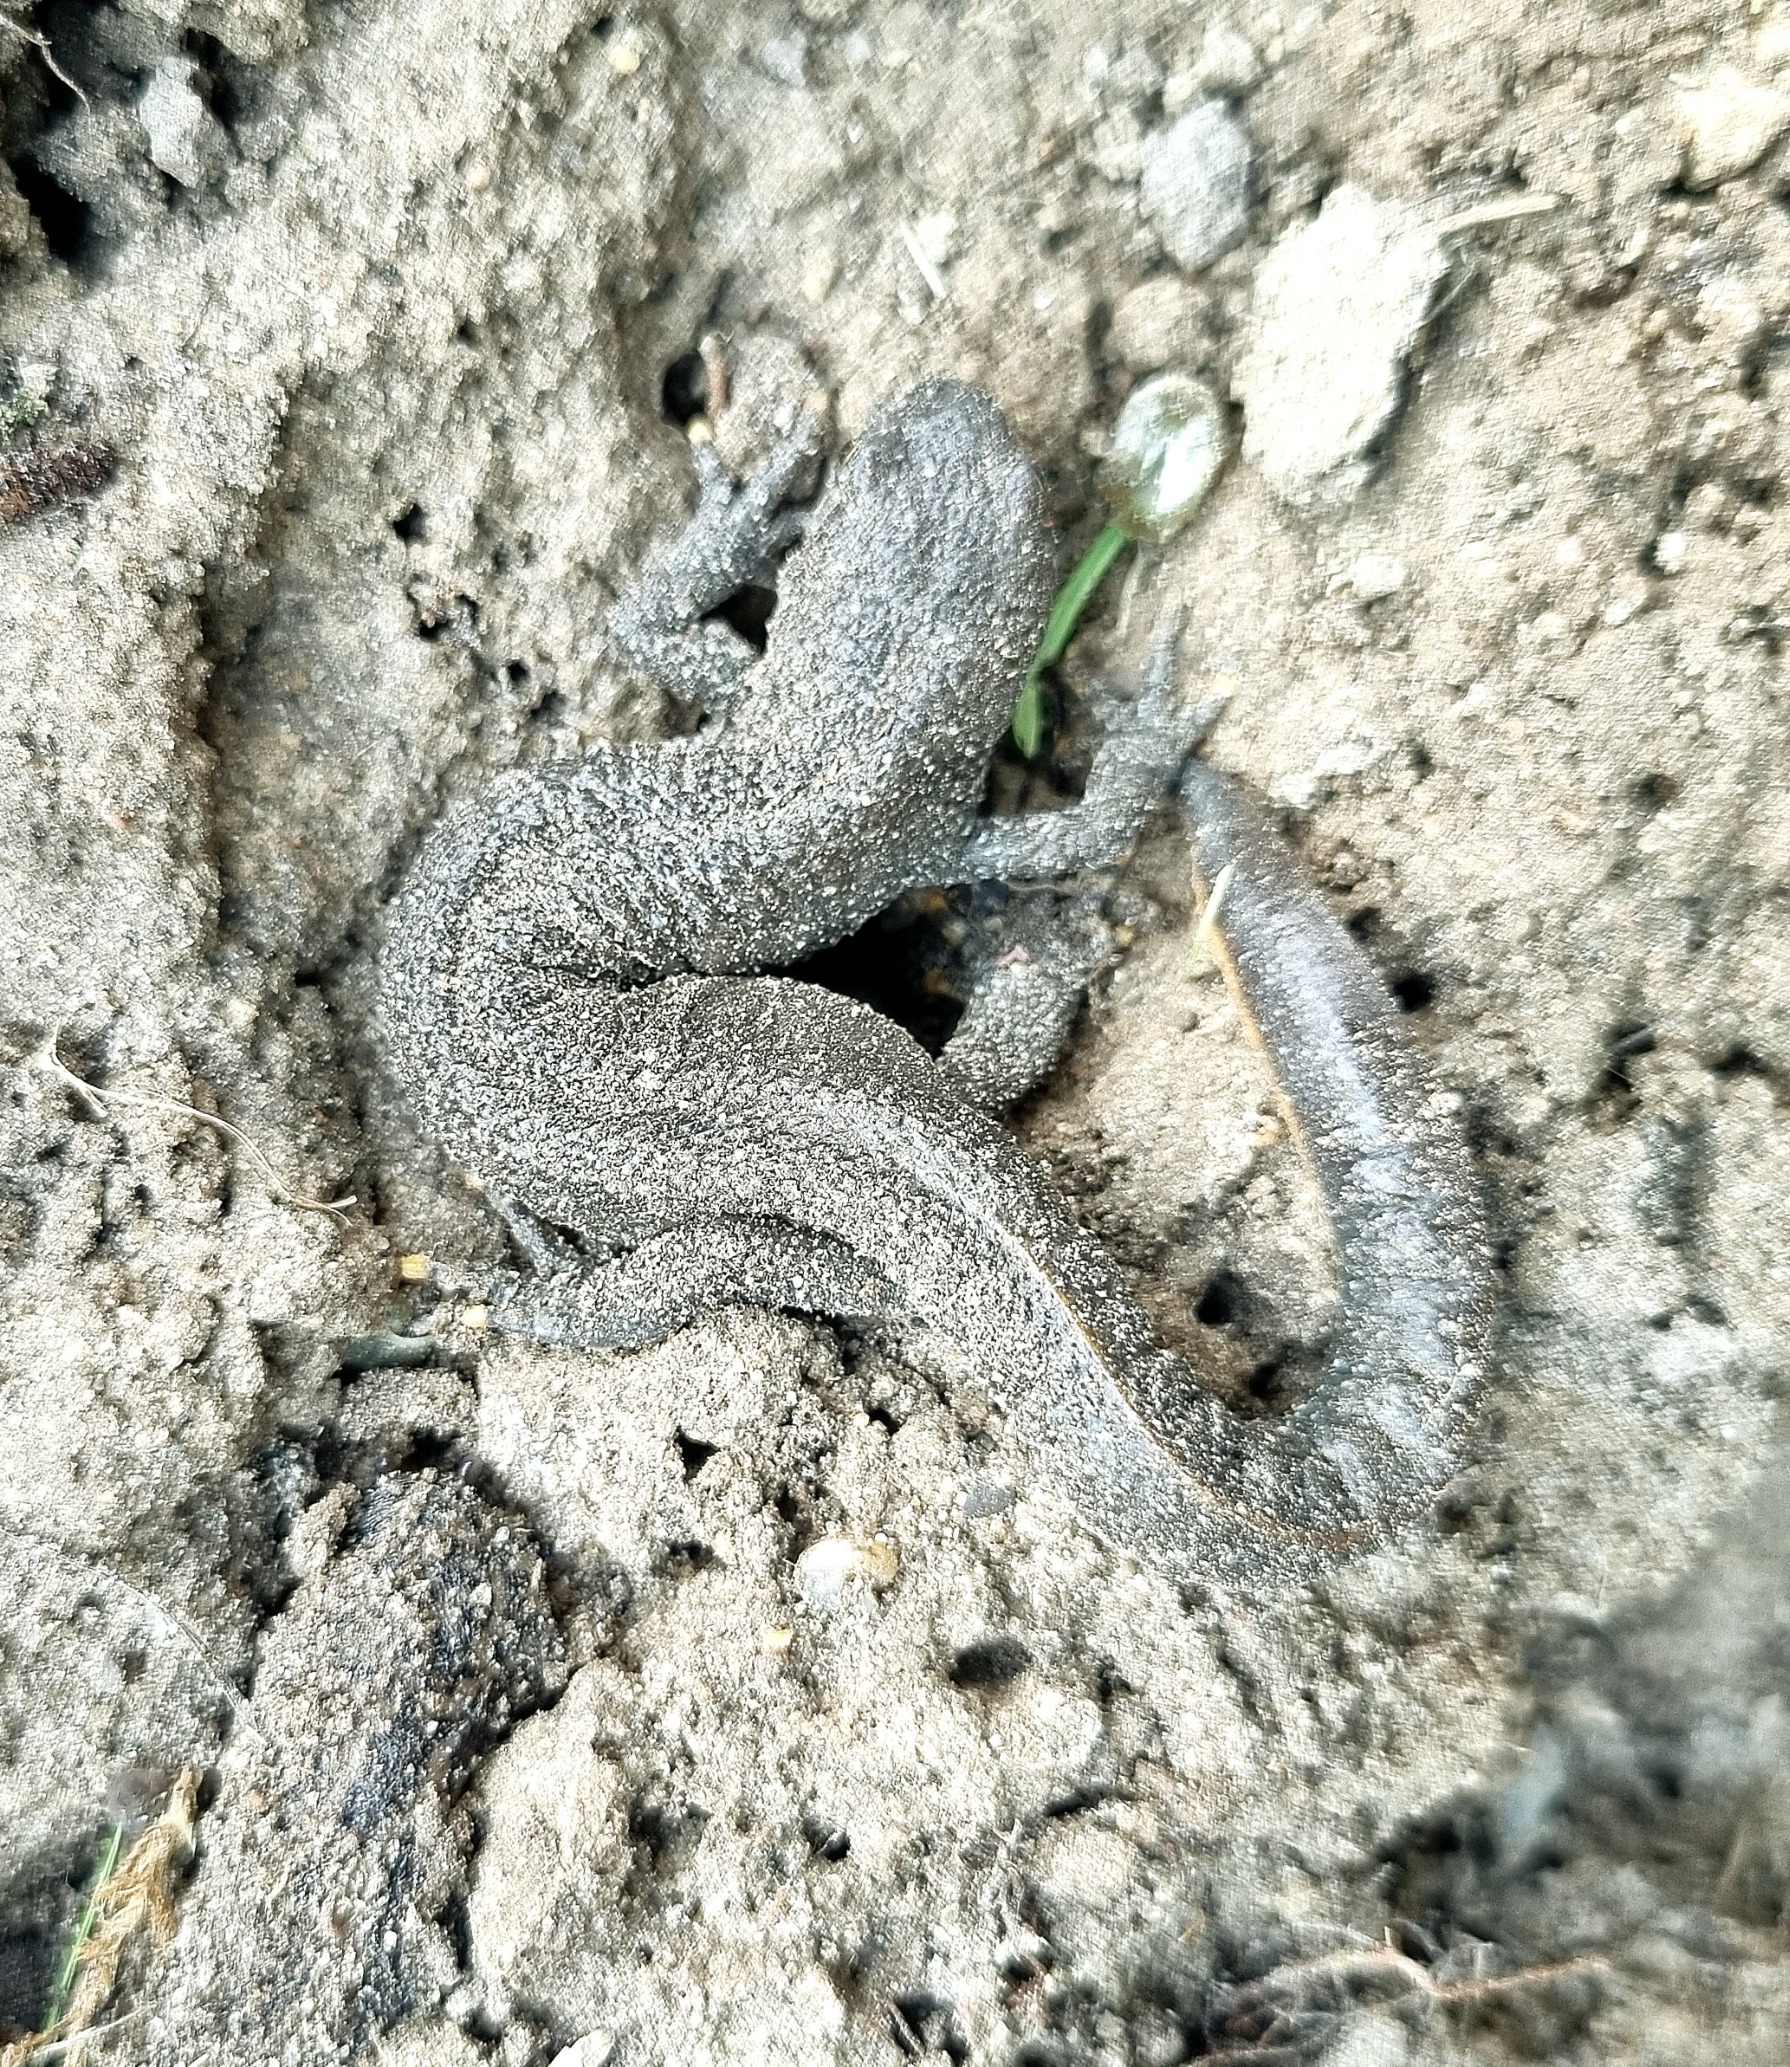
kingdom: Animalia
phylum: Chordata
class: Amphibia
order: Caudata
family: Salamandridae
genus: Triturus
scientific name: Triturus cristatus
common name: Stor vandsalamander
